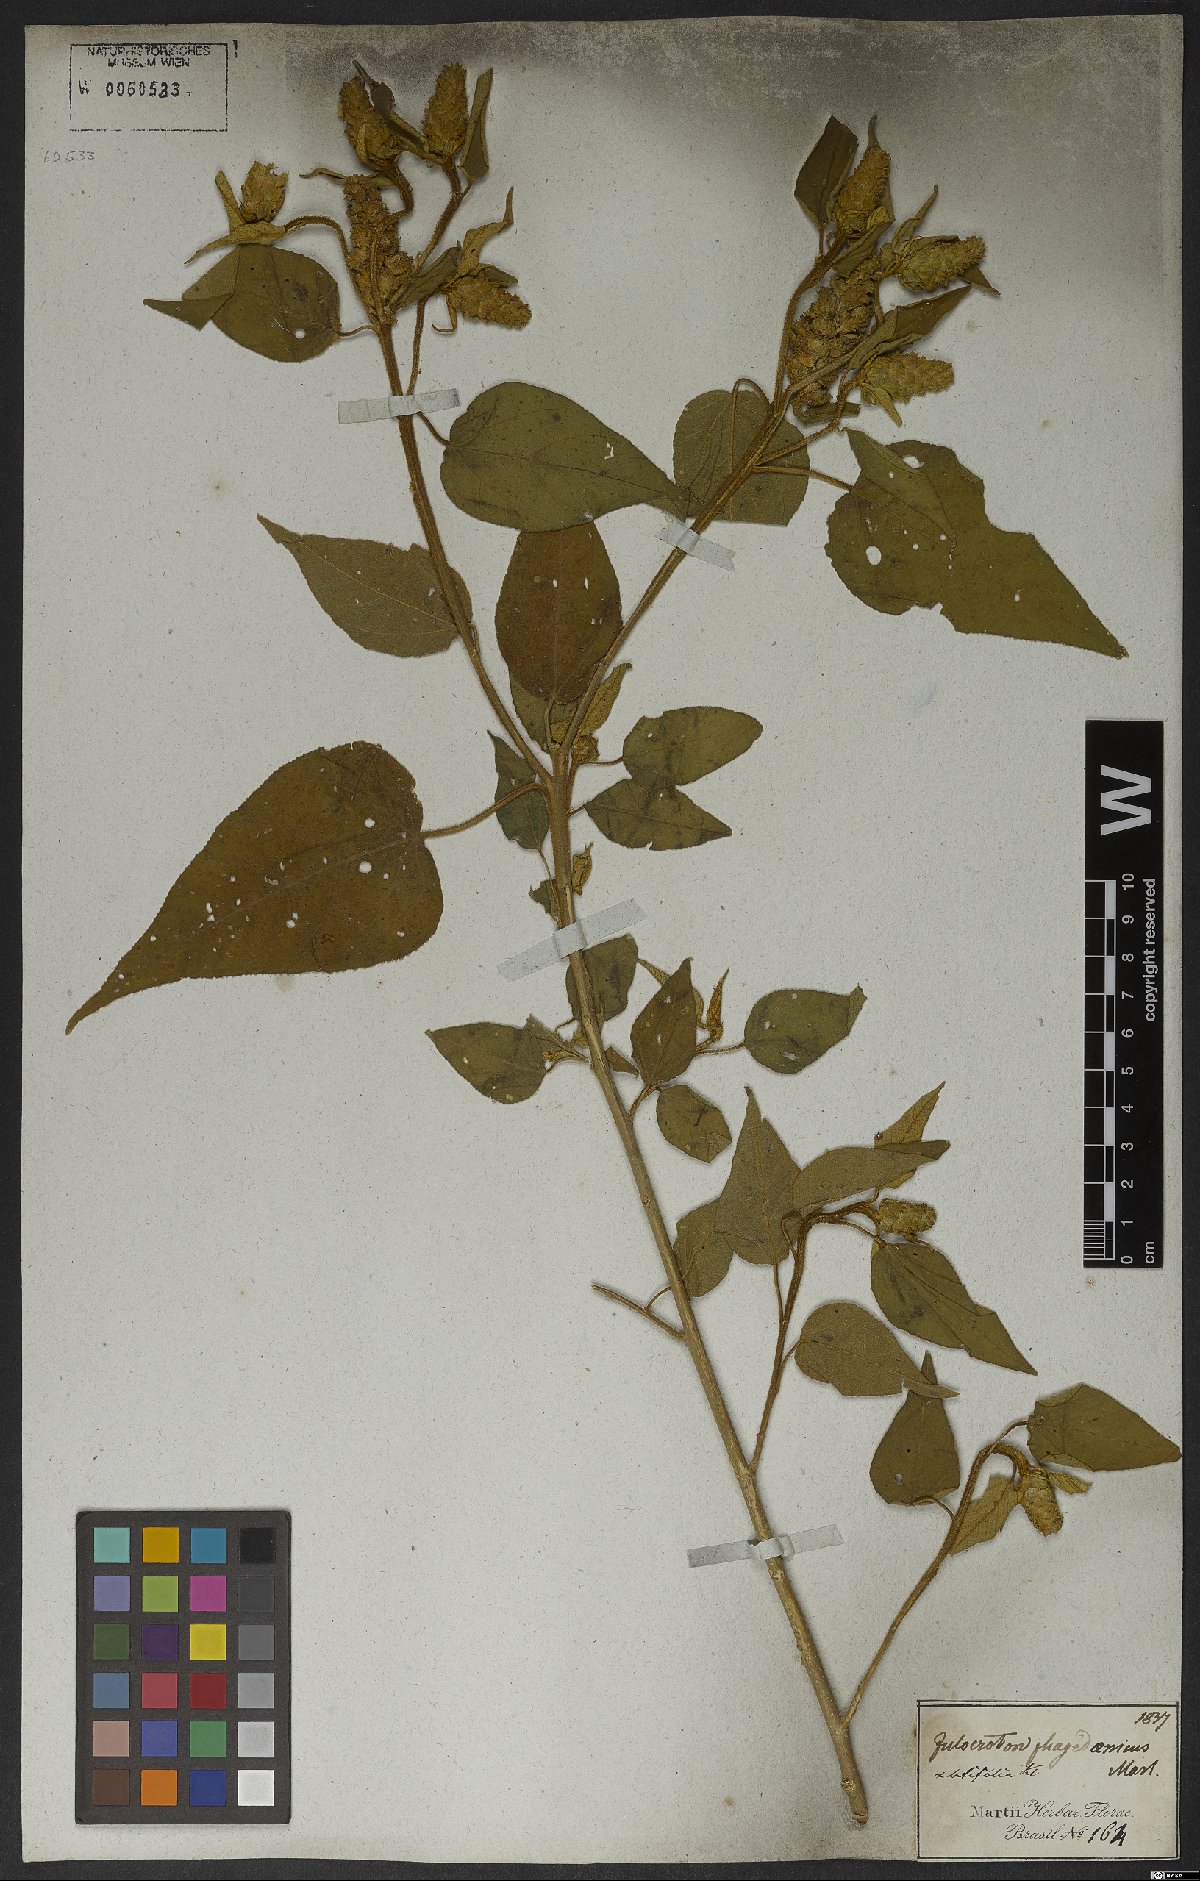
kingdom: Plantae
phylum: Tracheophyta
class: Magnoliopsida
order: Malpighiales
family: Euphorbiaceae
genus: Croton
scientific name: Croton triqueter
